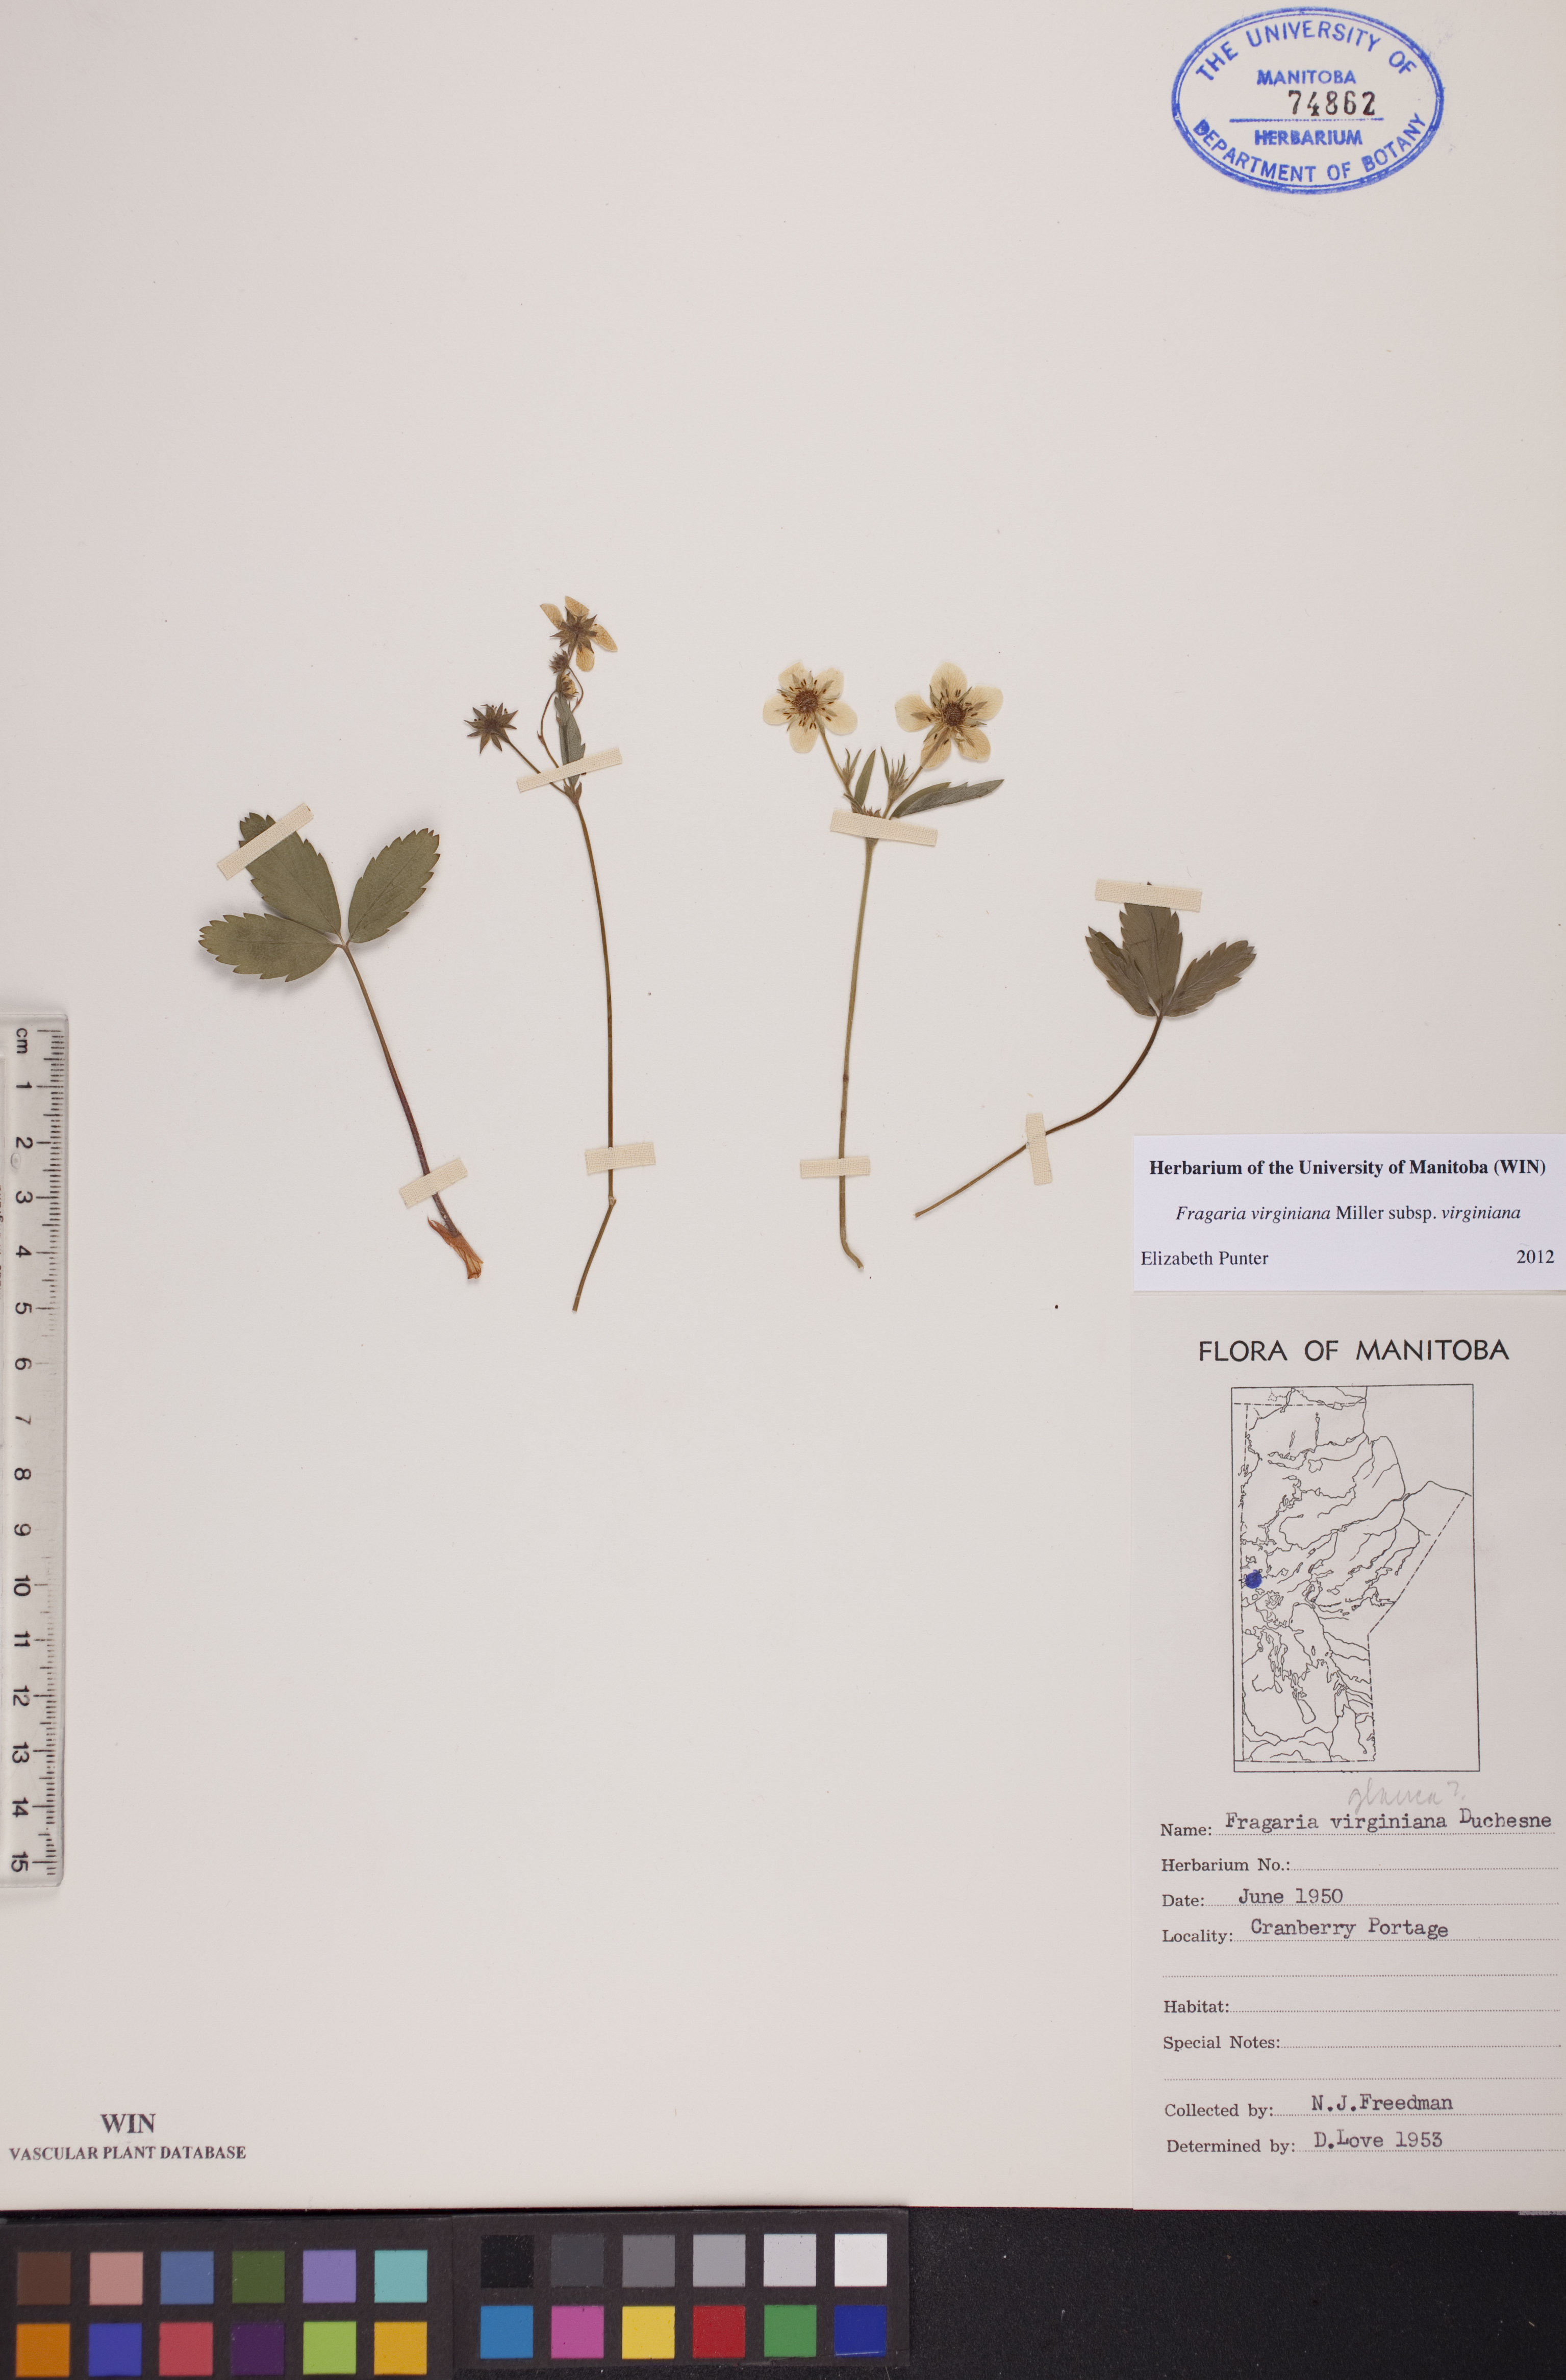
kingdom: Plantae
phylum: Tracheophyta
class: Magnoliopsida
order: Rosales
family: Rosaceae
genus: Fragaria
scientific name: Fragaria virginiana
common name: Thickleaved wild strawberry
